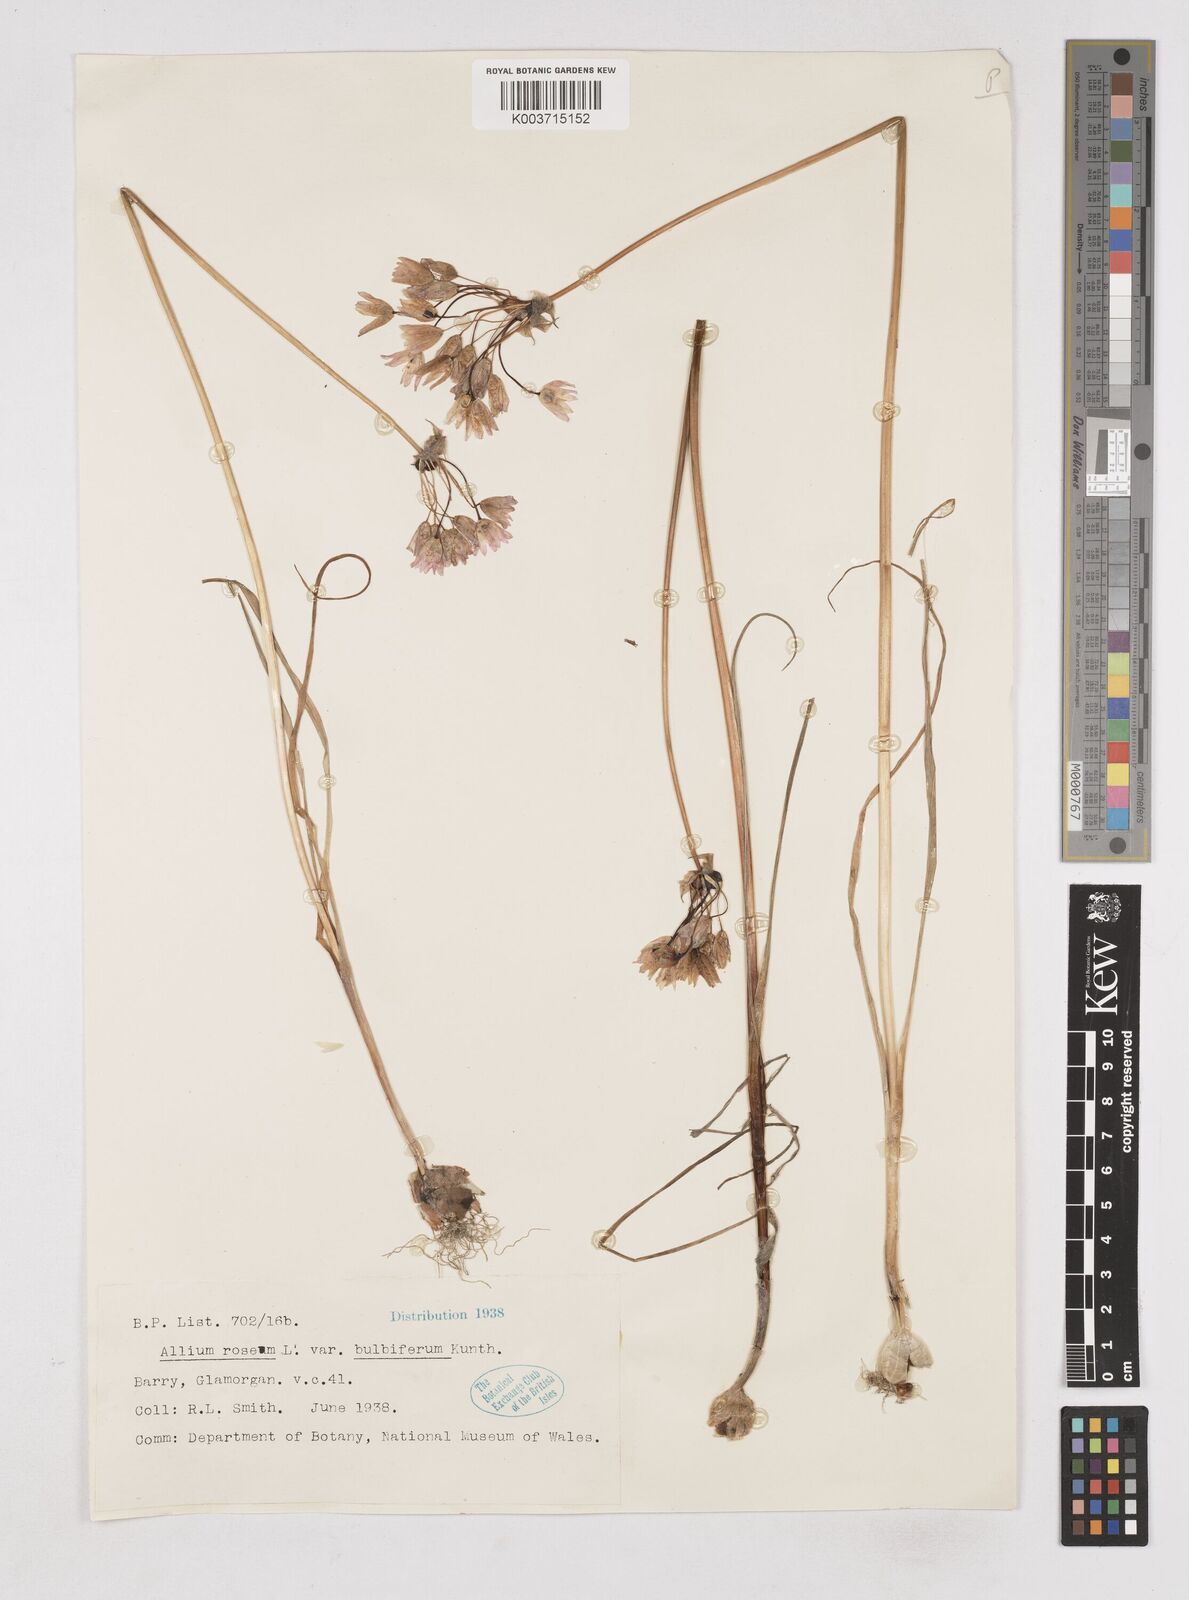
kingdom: Plantae
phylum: Tracheophyta
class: Liliopsida
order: Asparagales
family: Amaryllidaceae
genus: Allium
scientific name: Allium roseum
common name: Rosy garlic
